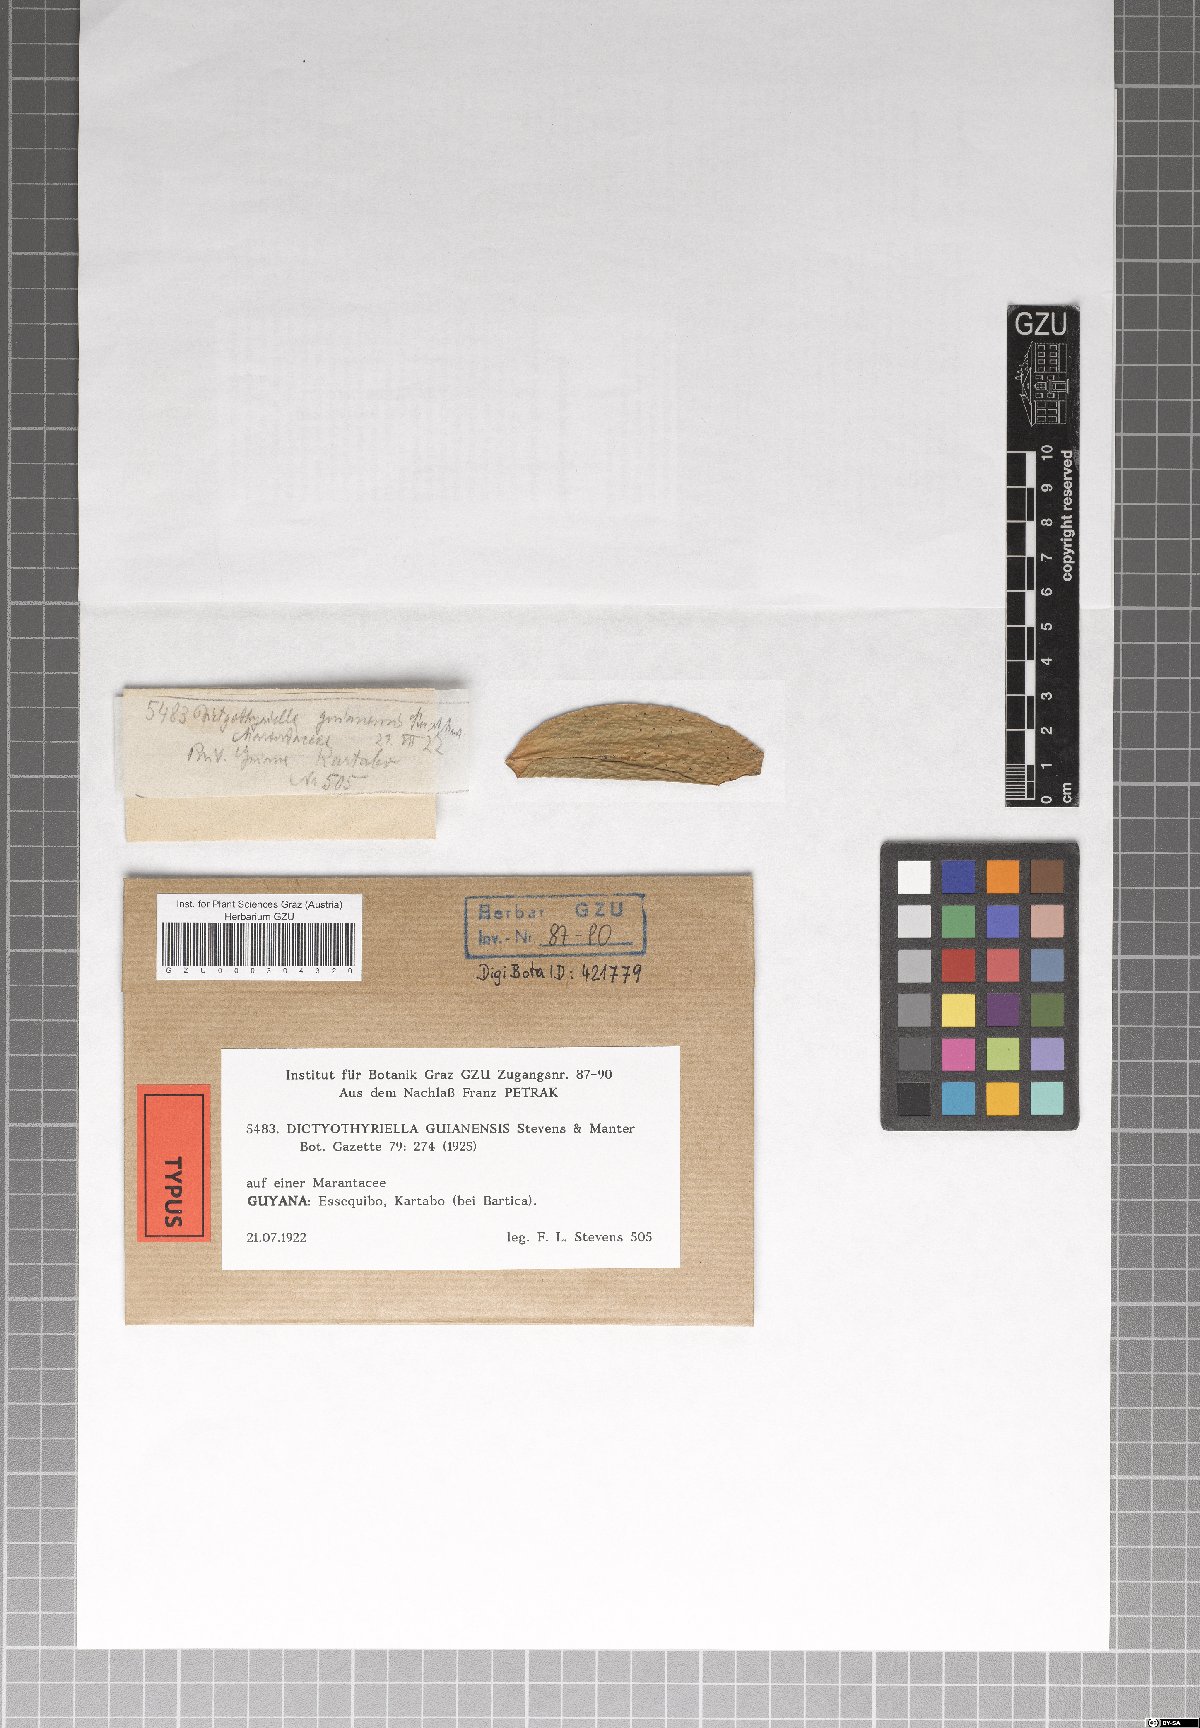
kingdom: Fungi
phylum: Ascomycota
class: Dothideomycetes
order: Microthyriales
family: Micropeltidaceae
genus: Dictyothyriella
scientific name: Dictyothyriella guianensis
